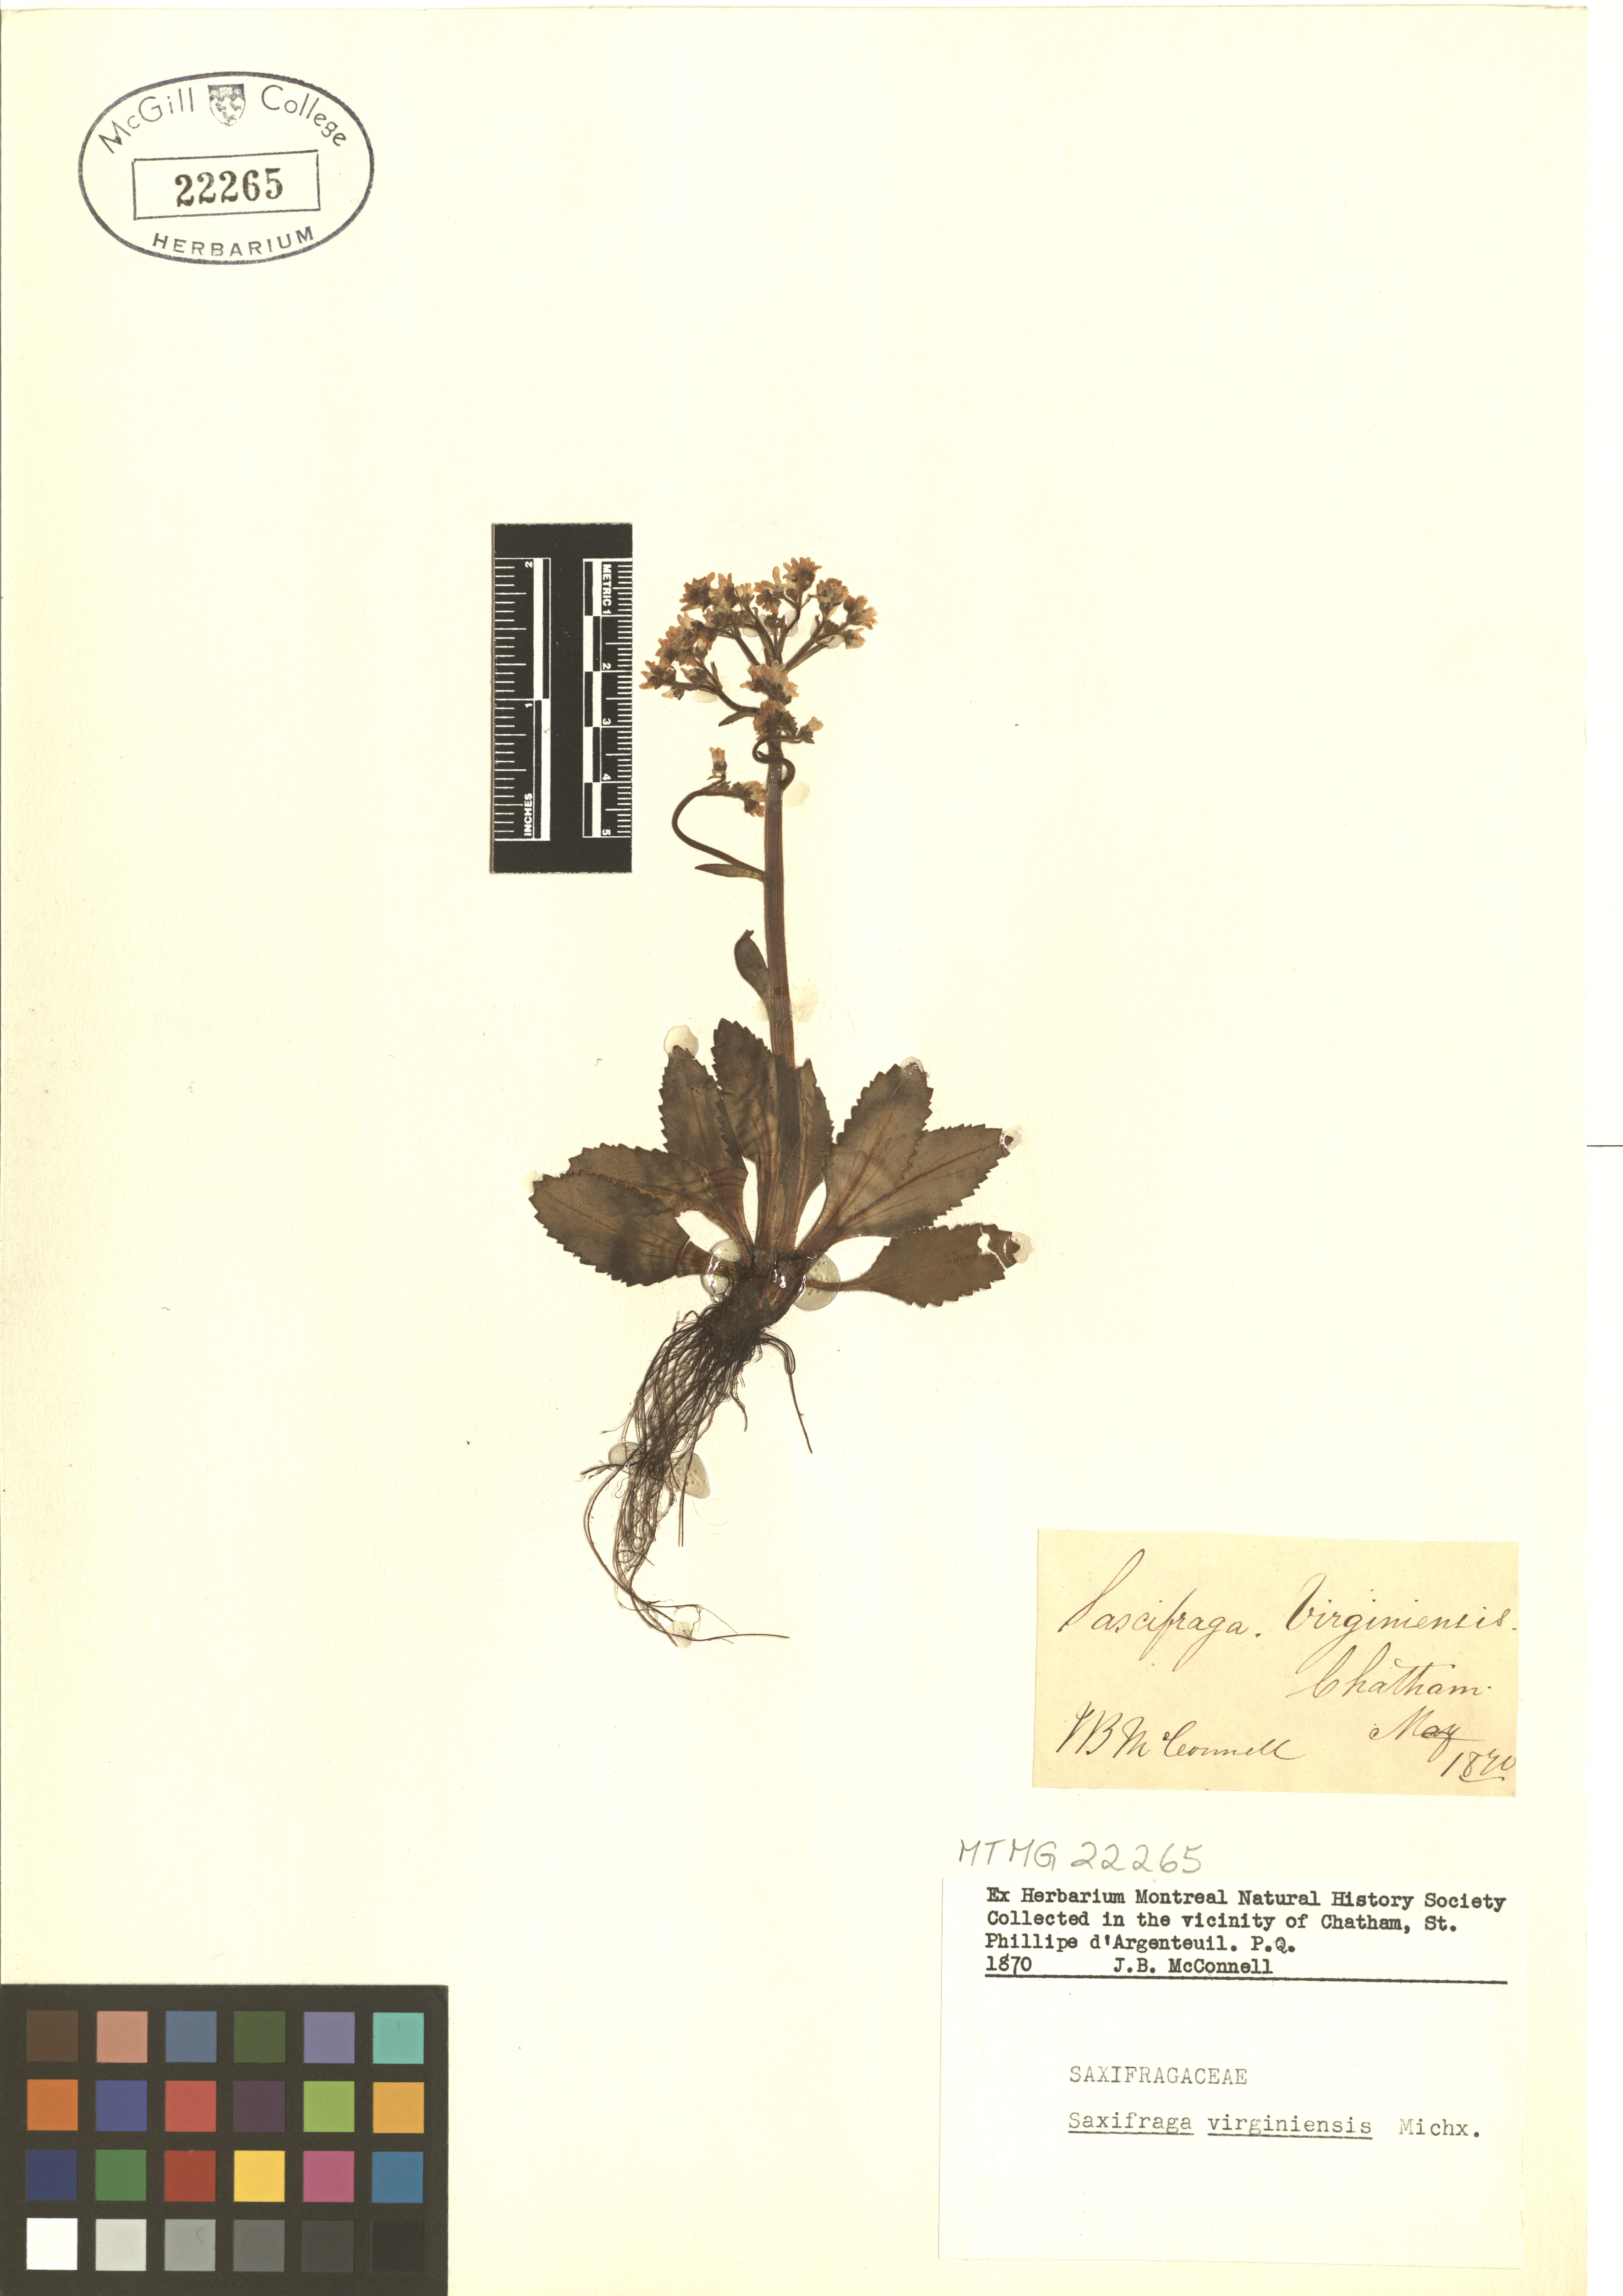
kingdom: Plantae
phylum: Tracheophyta
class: Magnoliopsida
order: Saxifragales
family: Saxifragaceae
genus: Micranthes
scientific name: Micranthes virginiensis
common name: Early saxifrage
